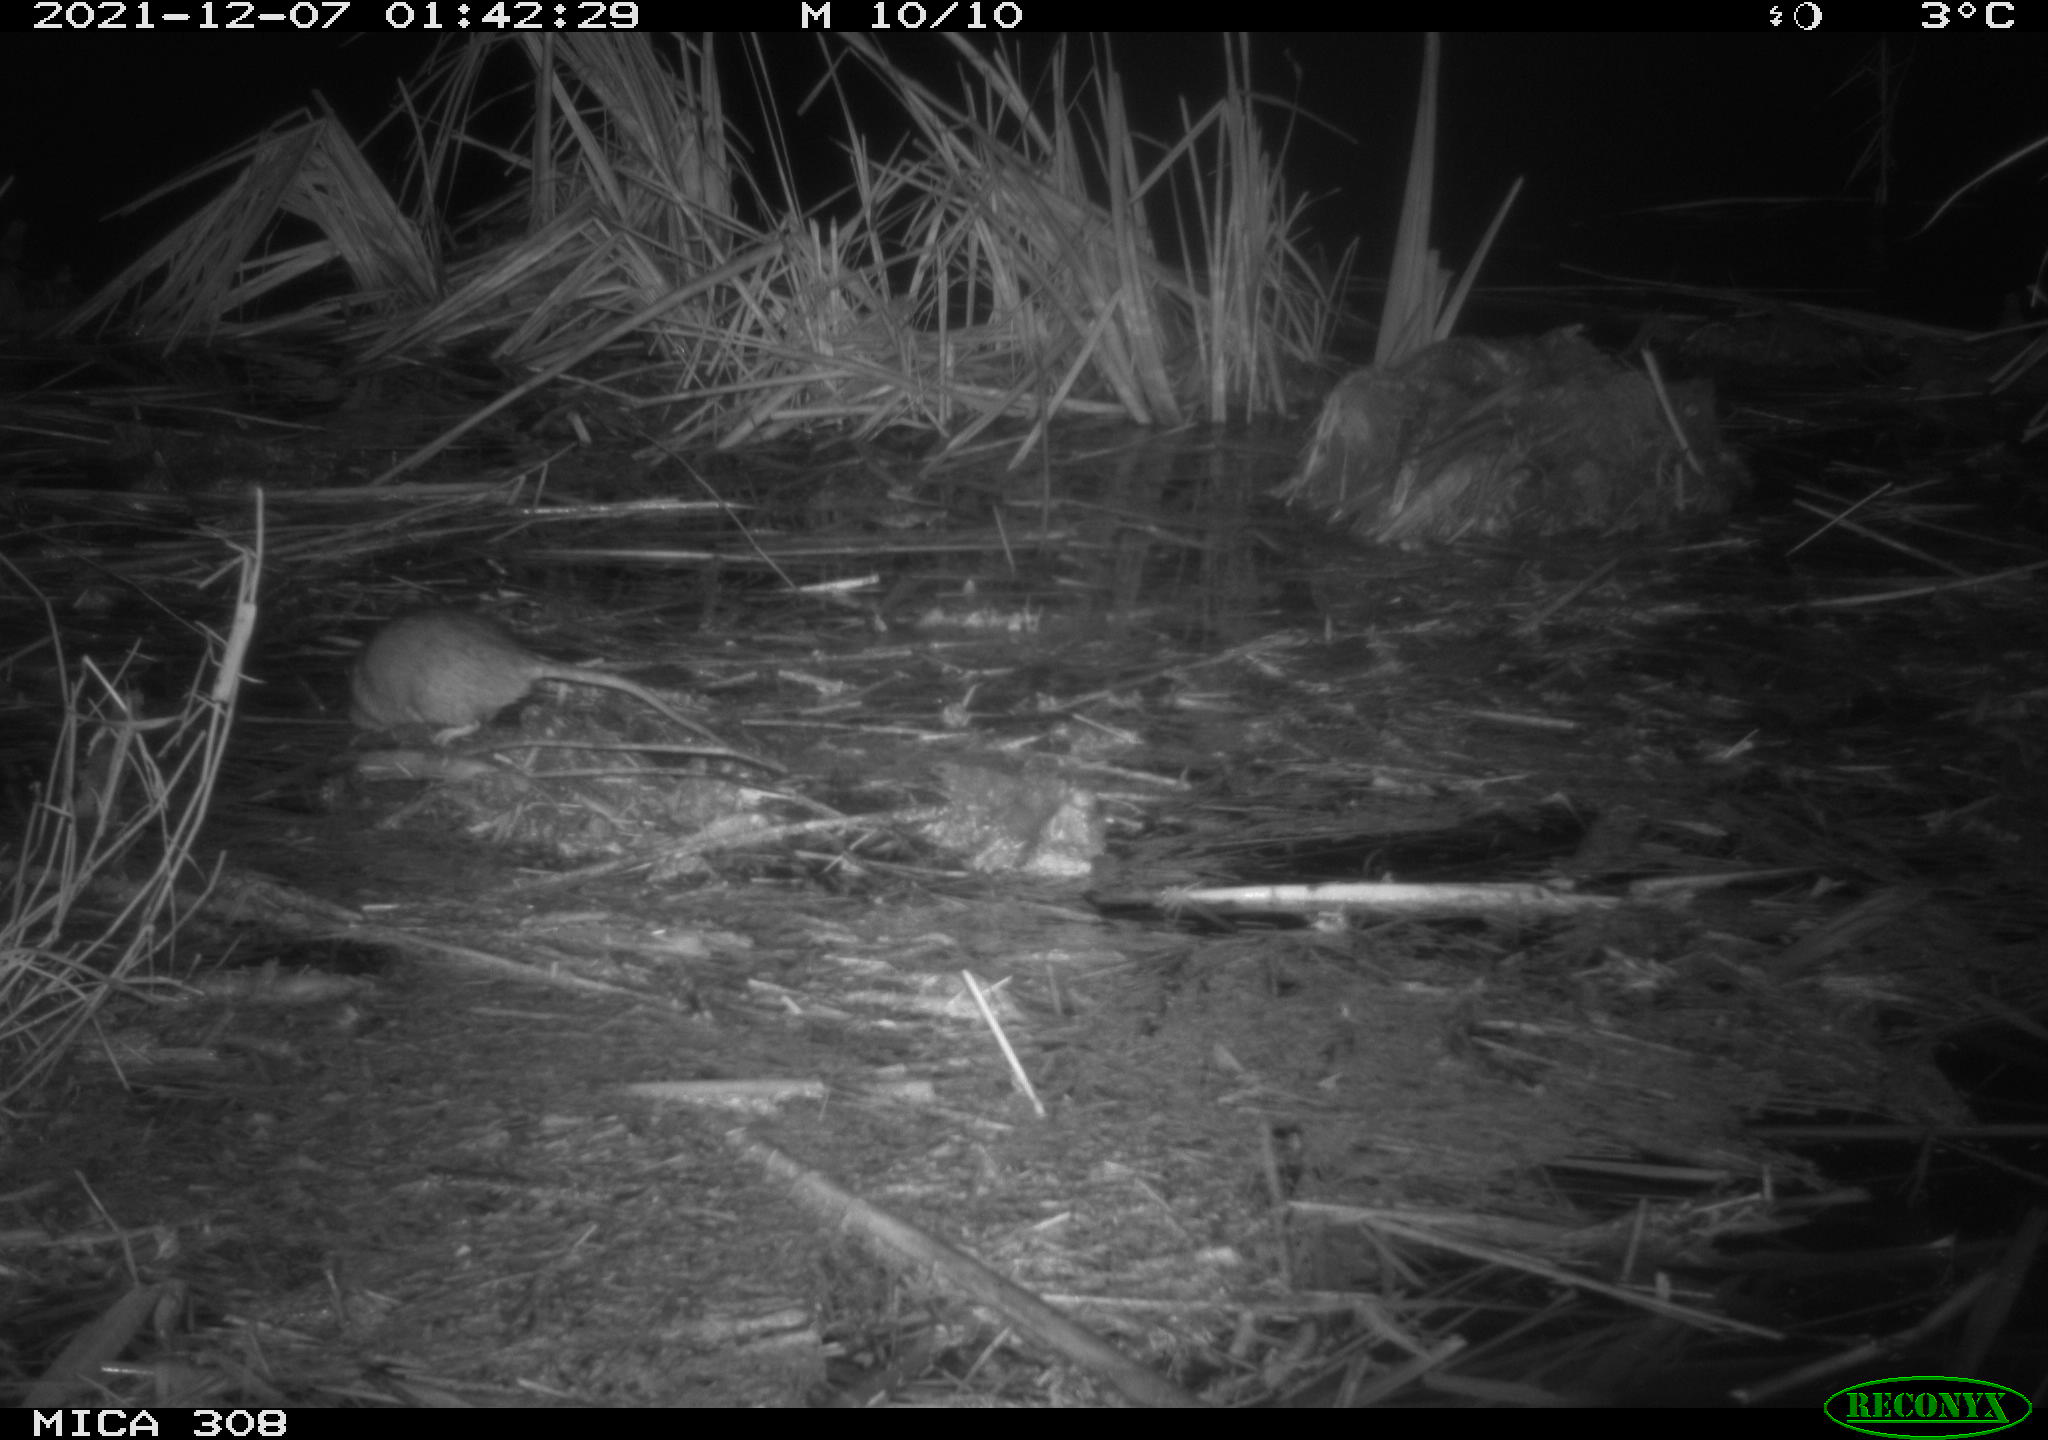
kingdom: Animalia
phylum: Chordata
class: Mammalia
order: Rodentia
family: Muridae
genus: Rattus
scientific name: Rattus norvegicus
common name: Brown rat
